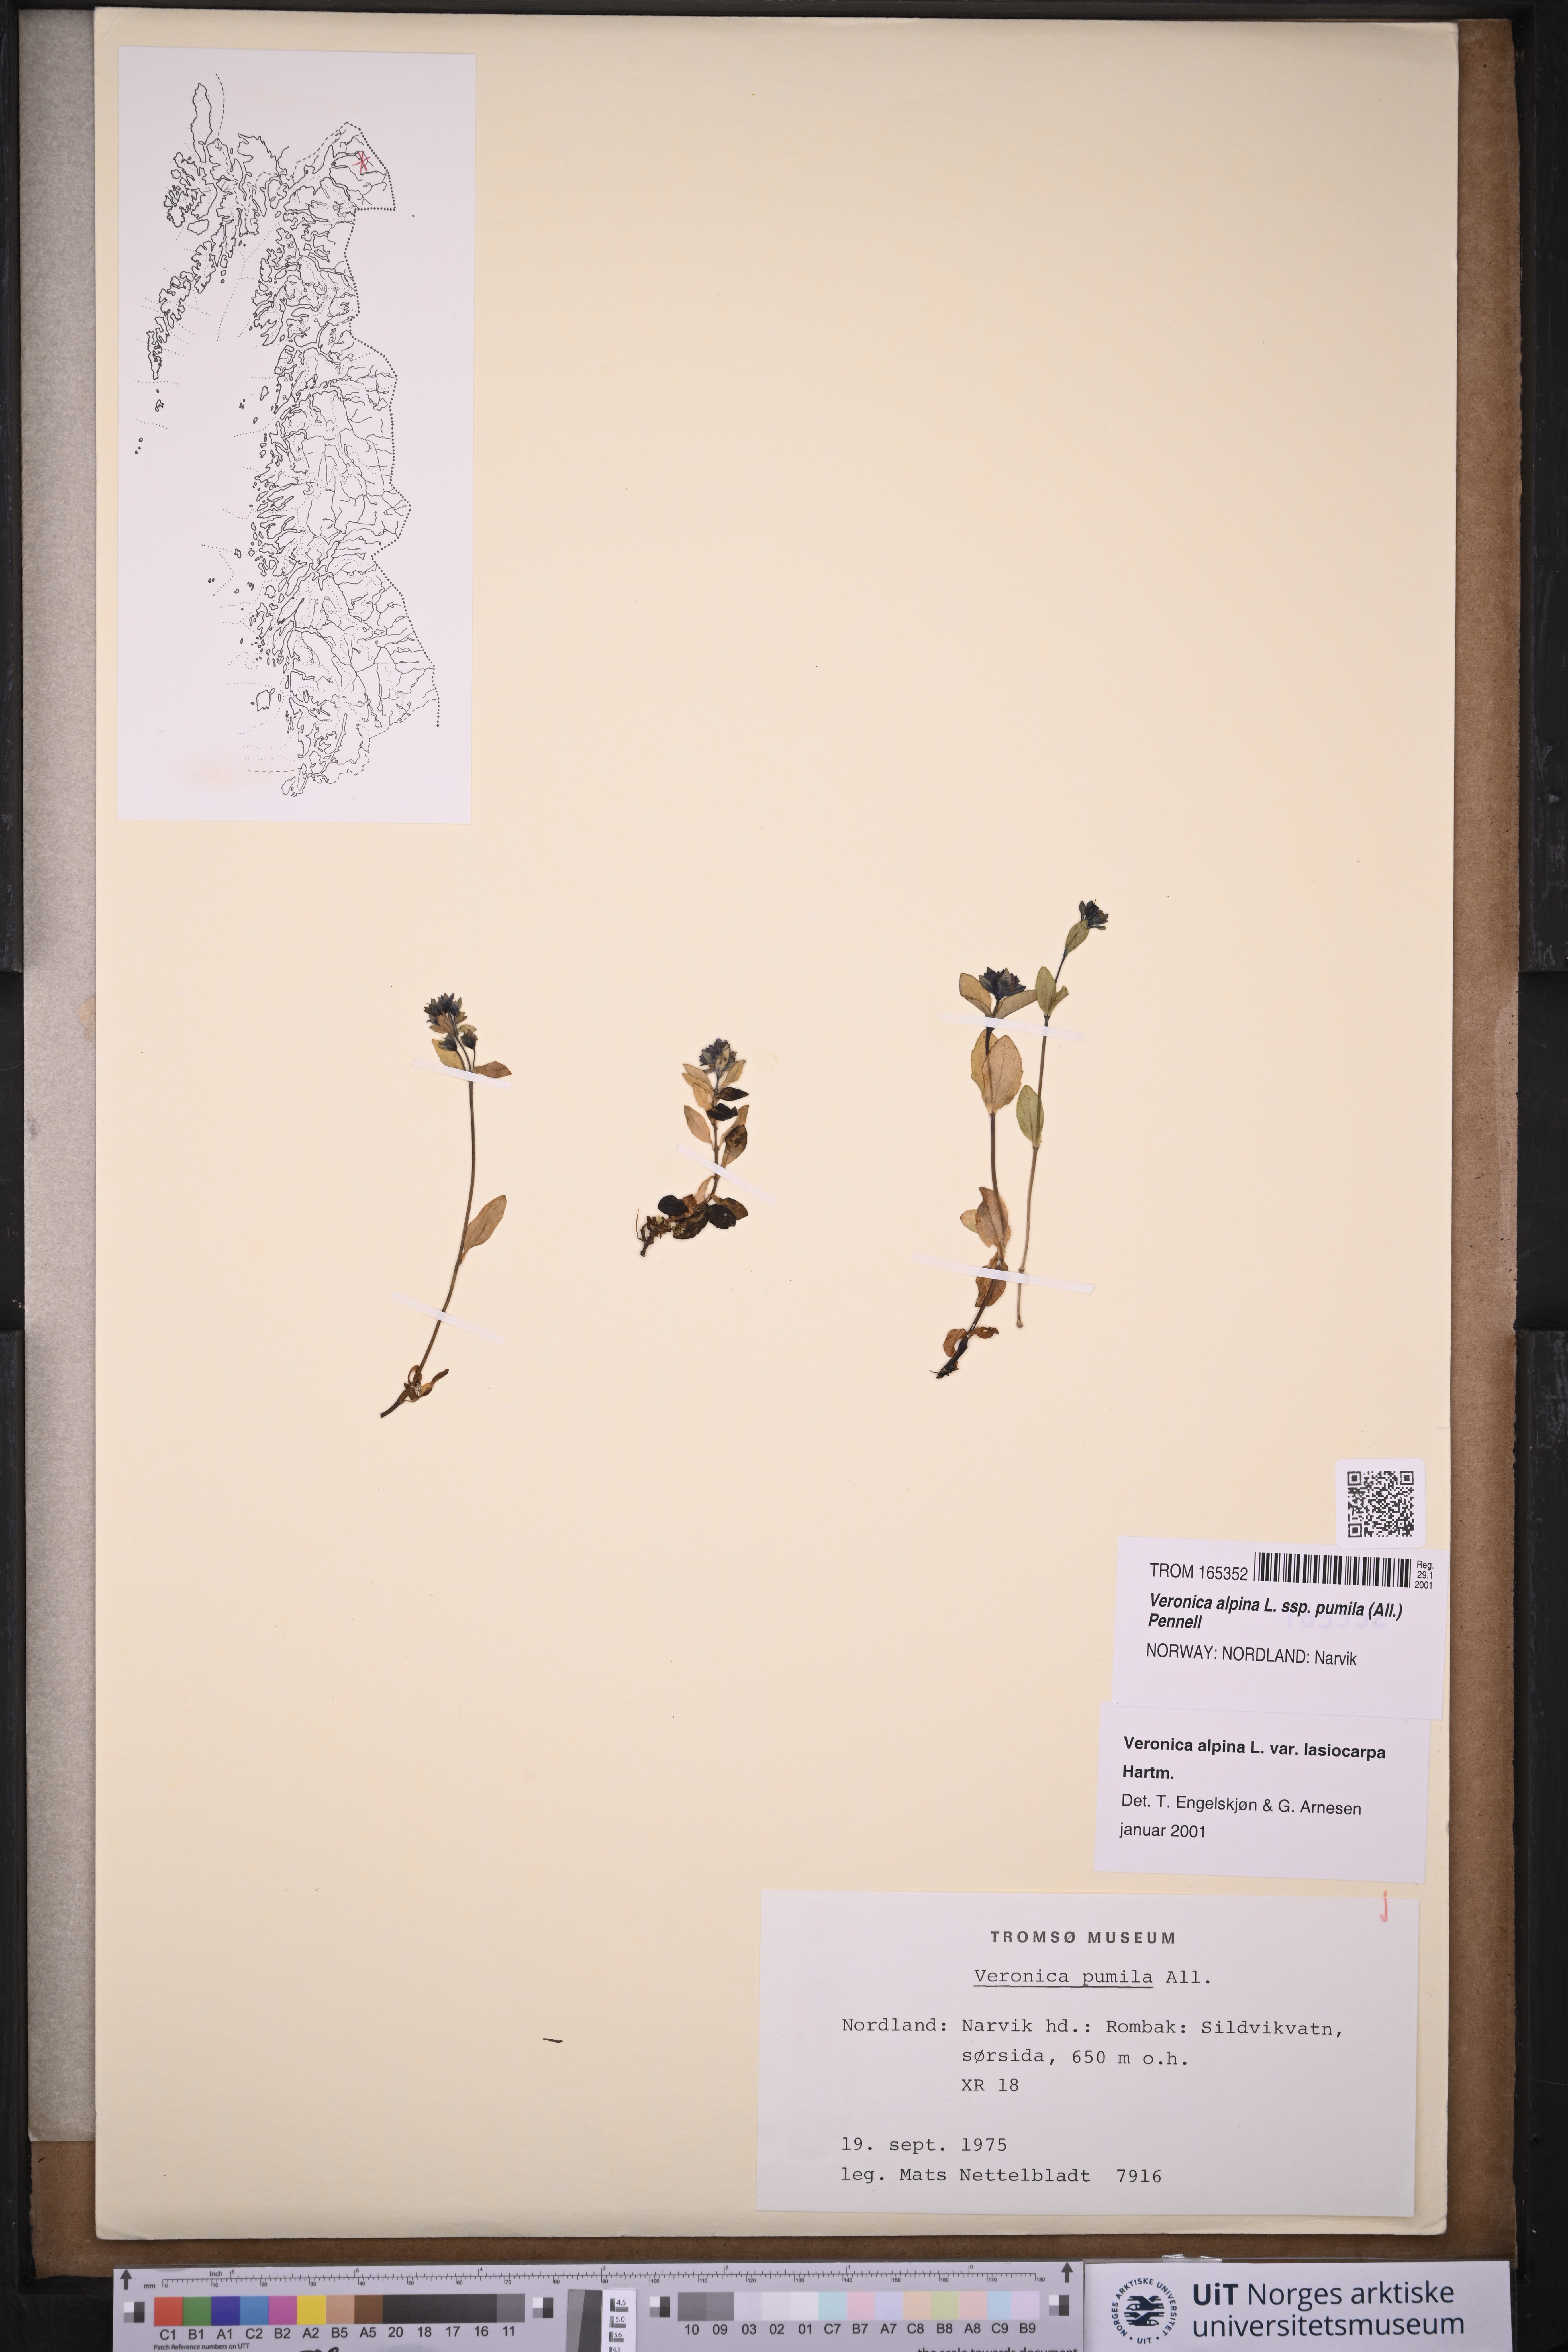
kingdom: Plantae
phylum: Tracheophyta
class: Magnoliopsida
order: Lamiales
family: Plantaginaceae
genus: Veronica
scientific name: Veronica alpina
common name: Alpine speedwell
